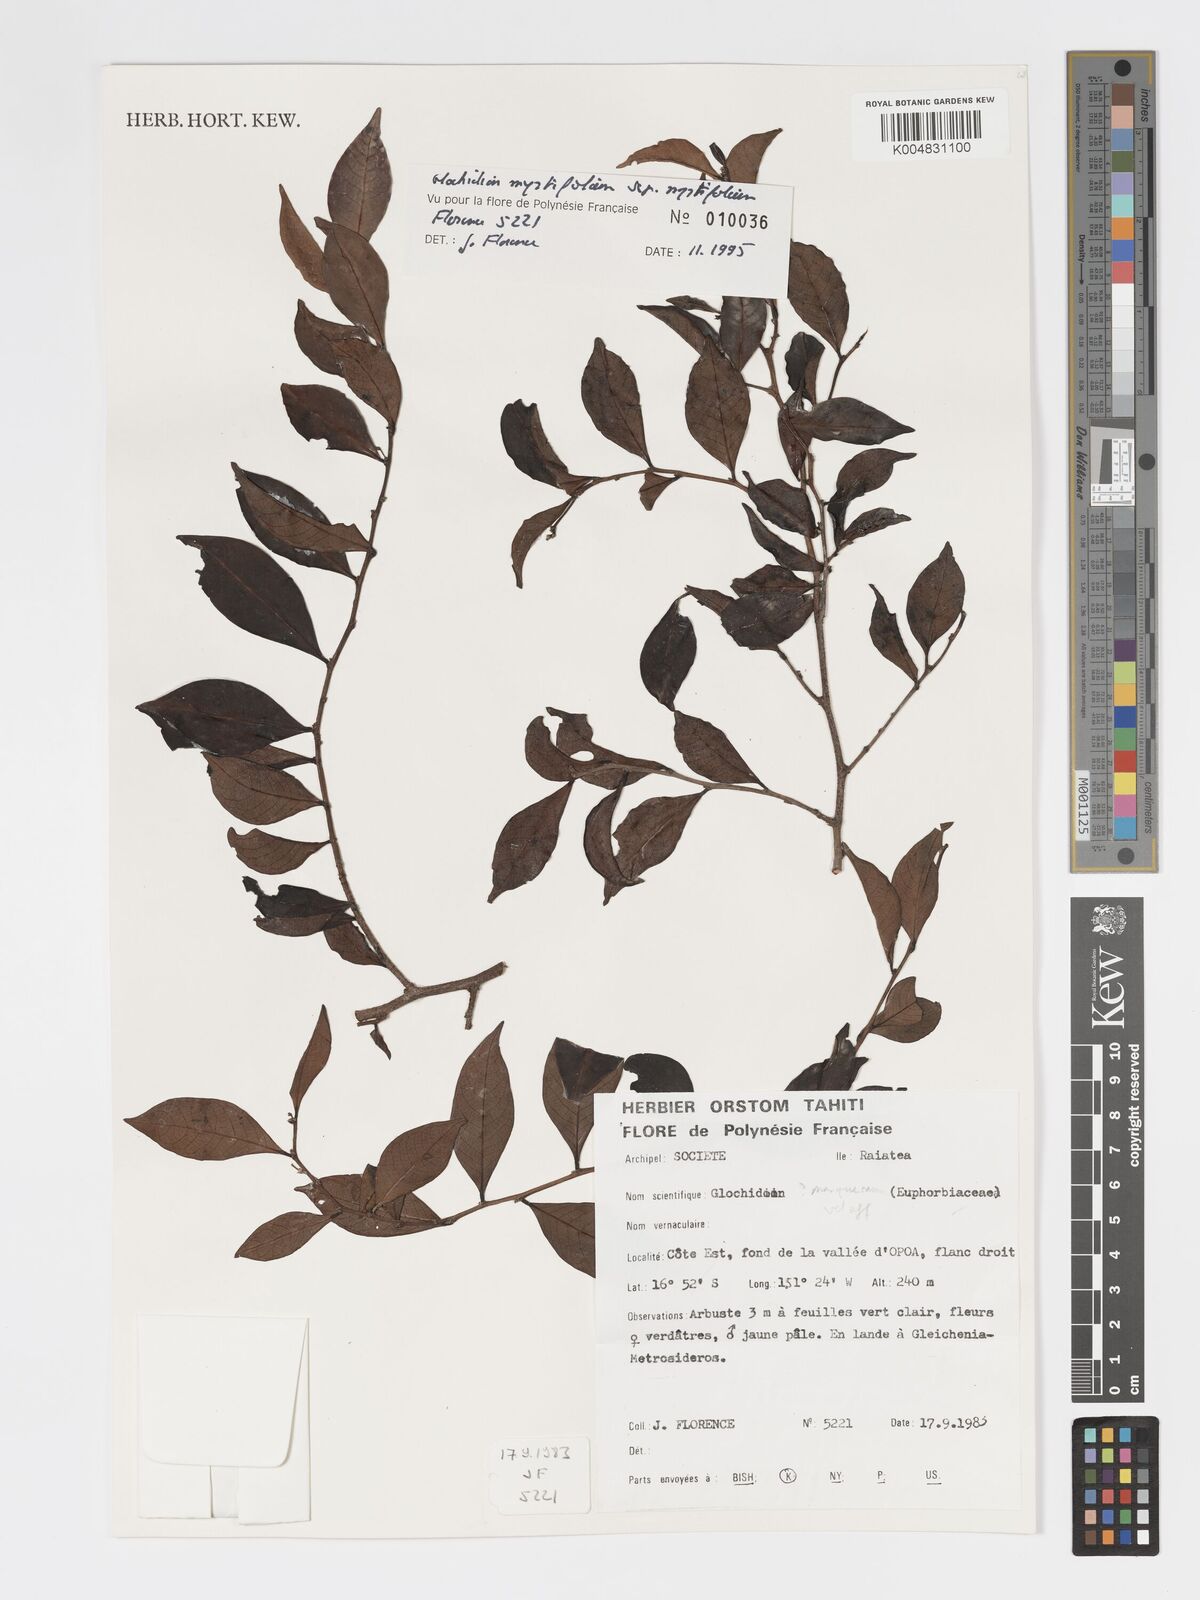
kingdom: Plantae
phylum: Tracheophyta
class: Magnoliopsida
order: Malpighiales
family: Phyllanthaceae
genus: Glochidion
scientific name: Glochidion myrtifolium
